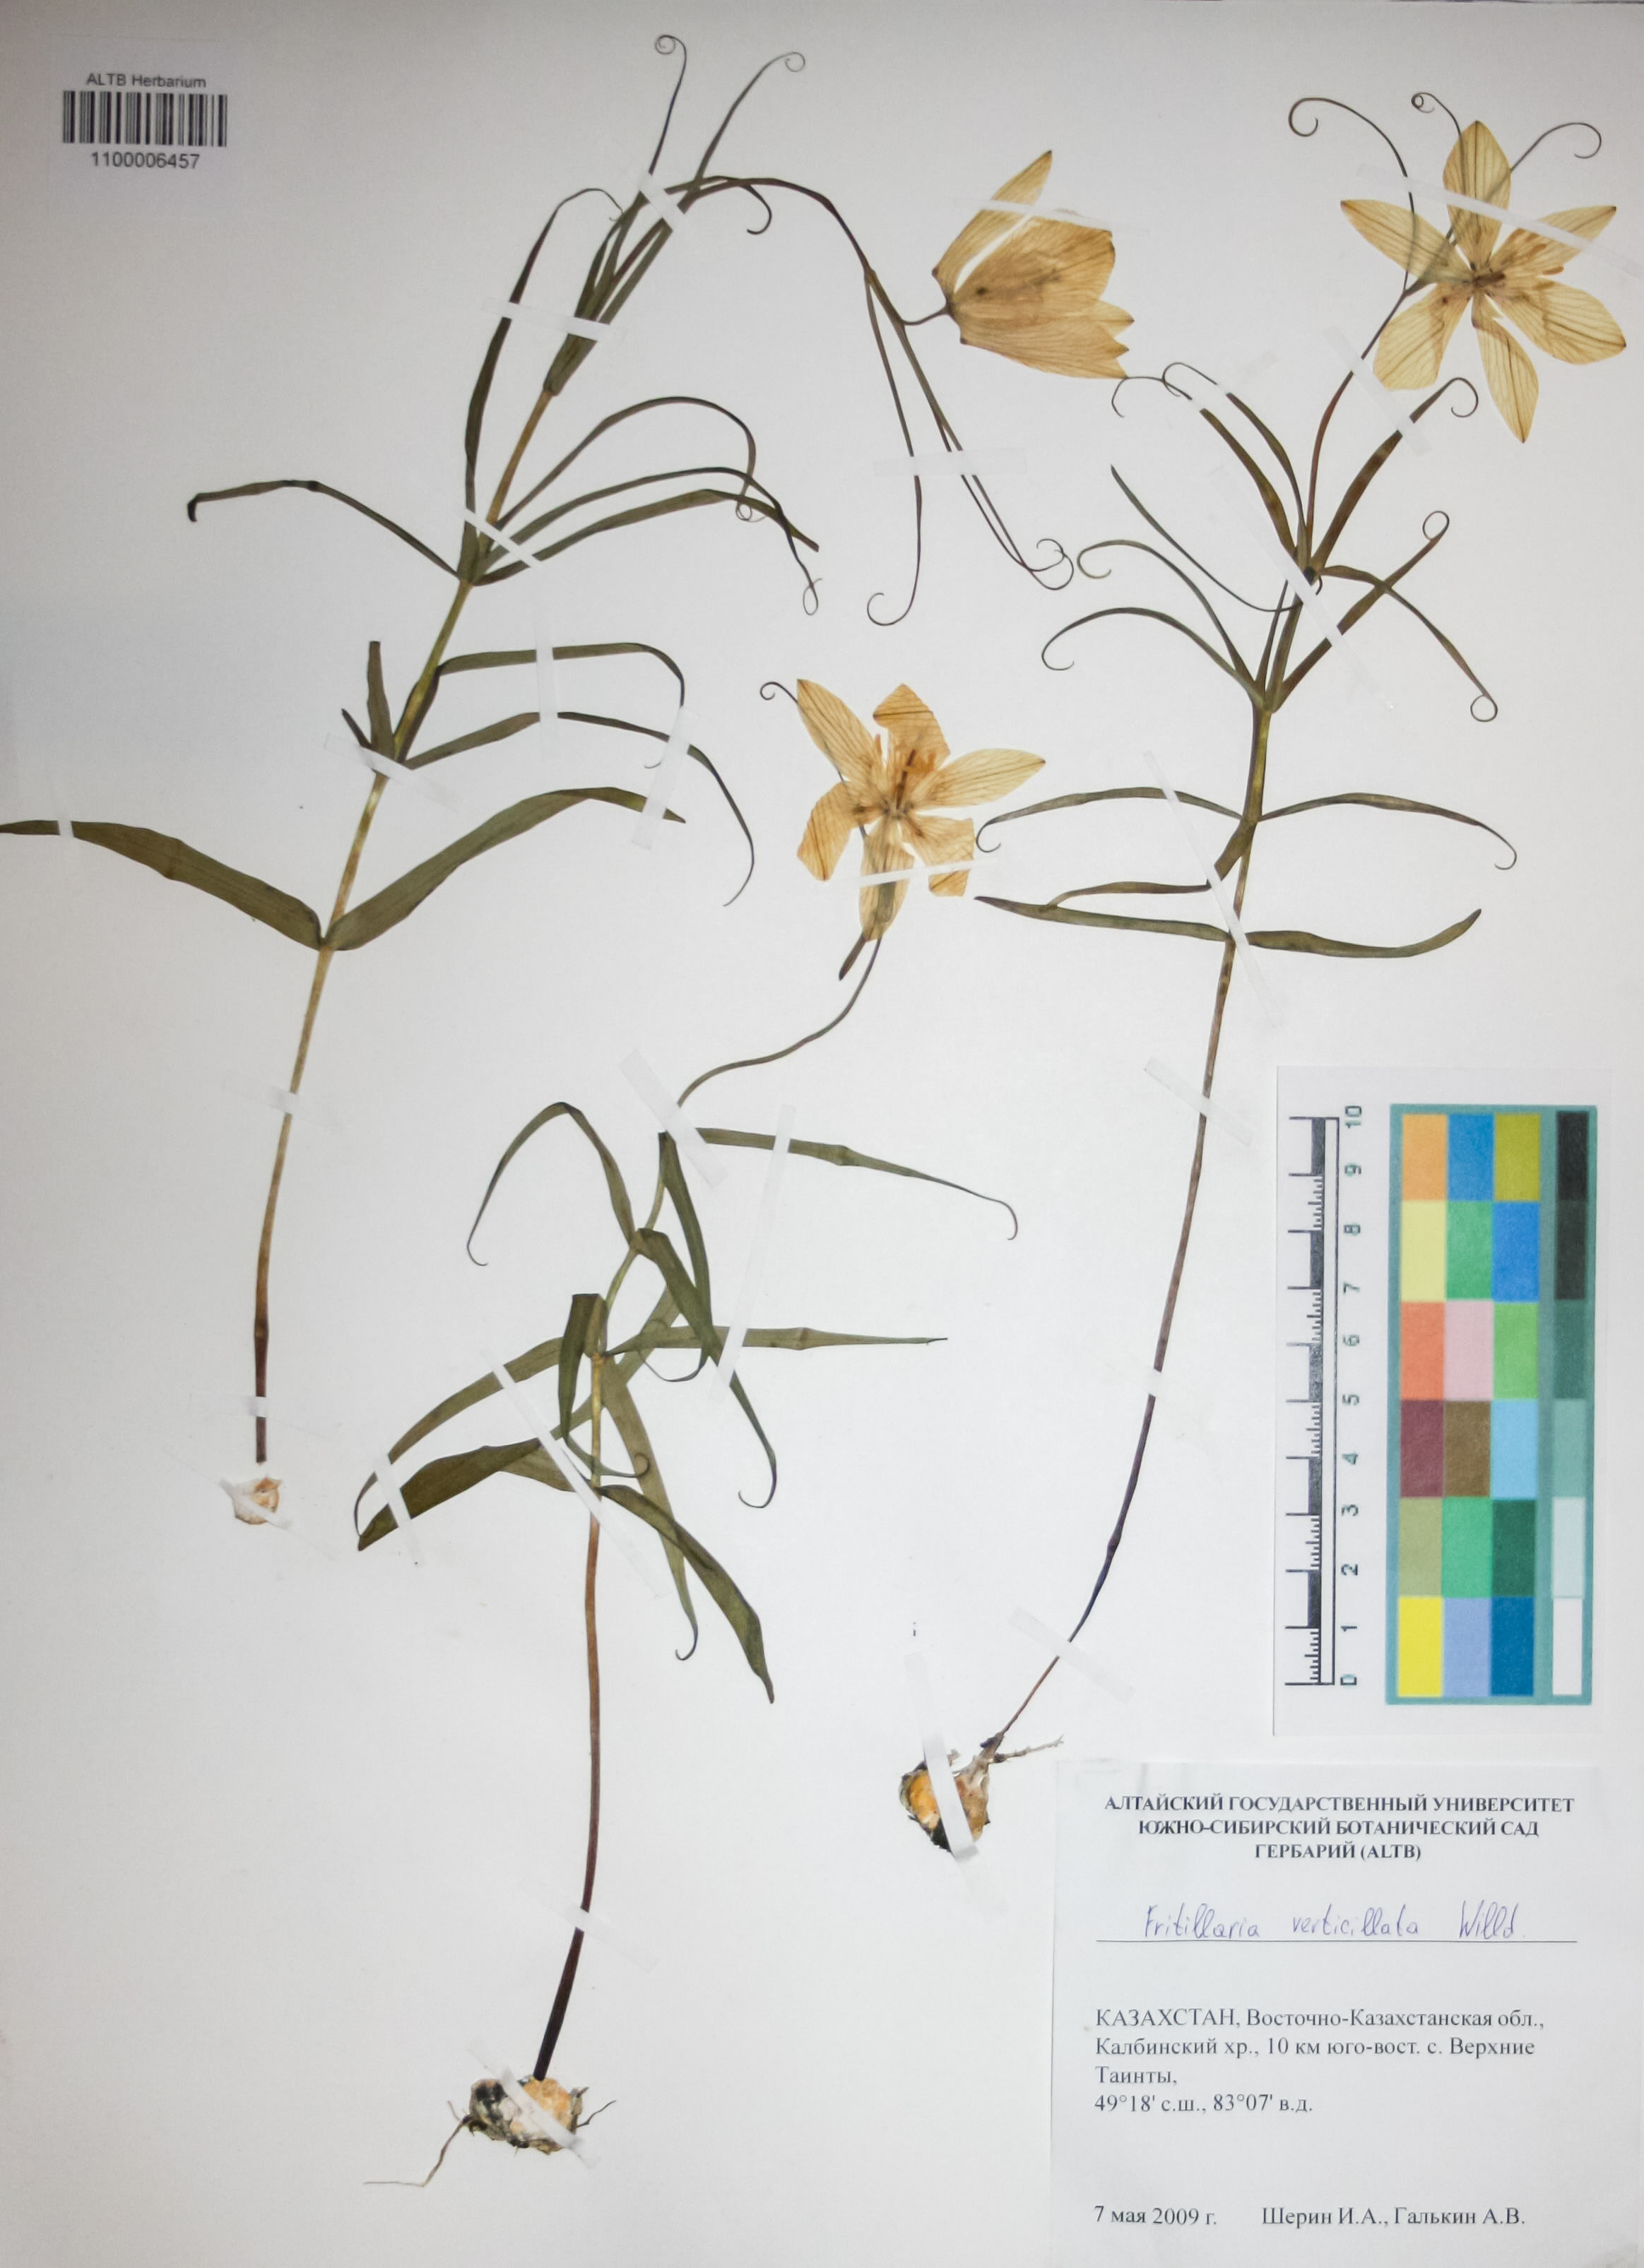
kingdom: Plantae
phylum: Tracheophyta
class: Liliopsida
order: Liliales
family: Liliaceae
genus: Fritillaria
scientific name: Fritillaria verticillata
